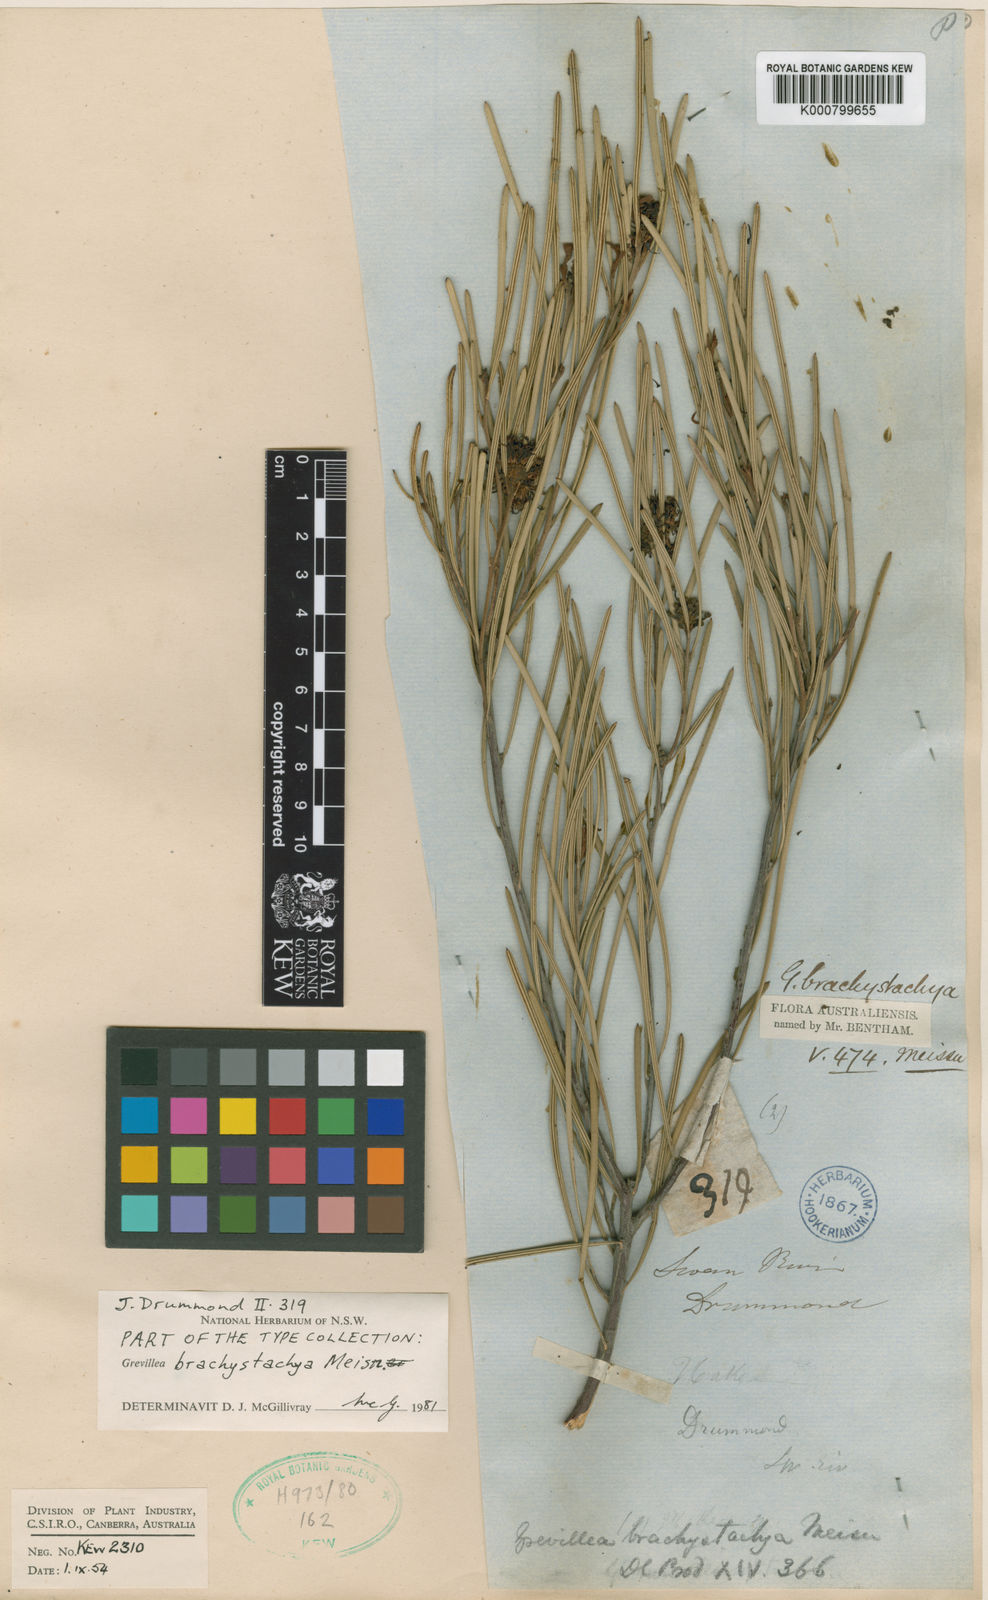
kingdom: Plantae
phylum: Tracheophyta
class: Magnoliopsida
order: Proteales
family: Proteaceae
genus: Grevillea
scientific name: Grevillea brachystachya
